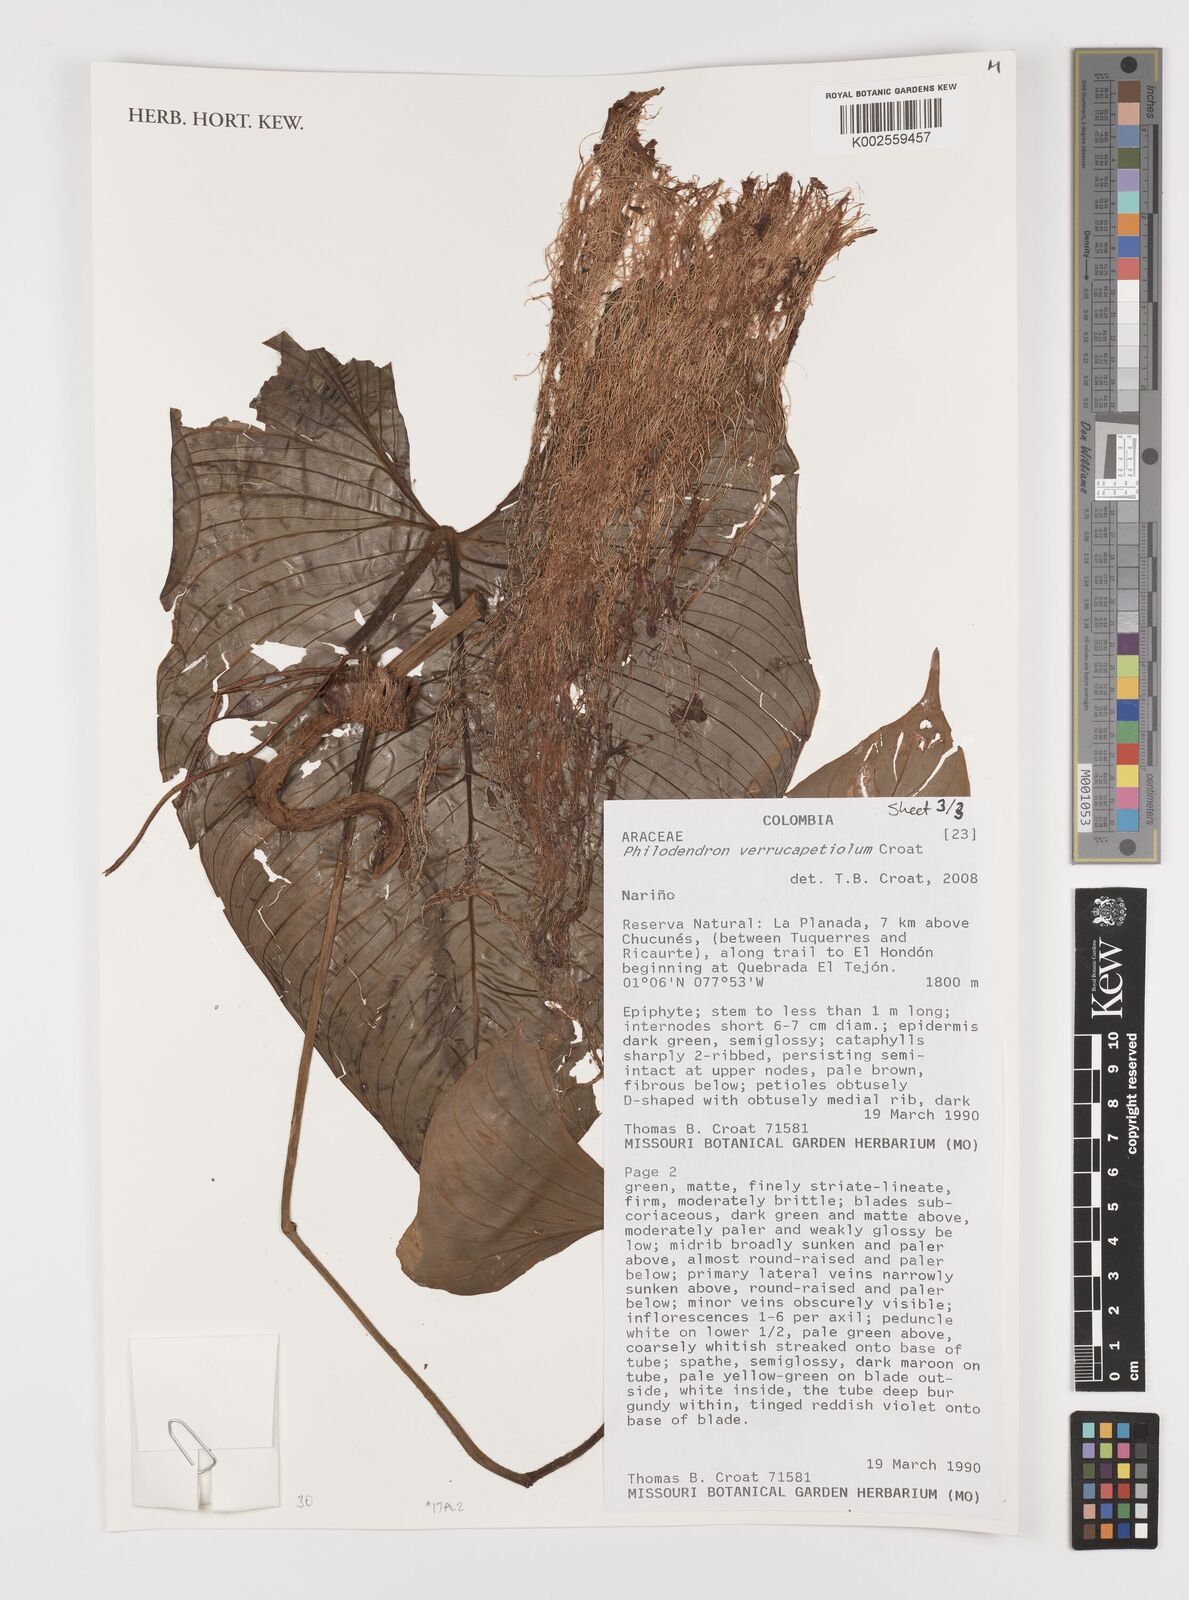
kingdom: Plantae
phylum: Tracheophyta
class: Liliopsida
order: Alismatales
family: Araceae
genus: Philodendron
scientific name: Philodendron verrucapetiolum
